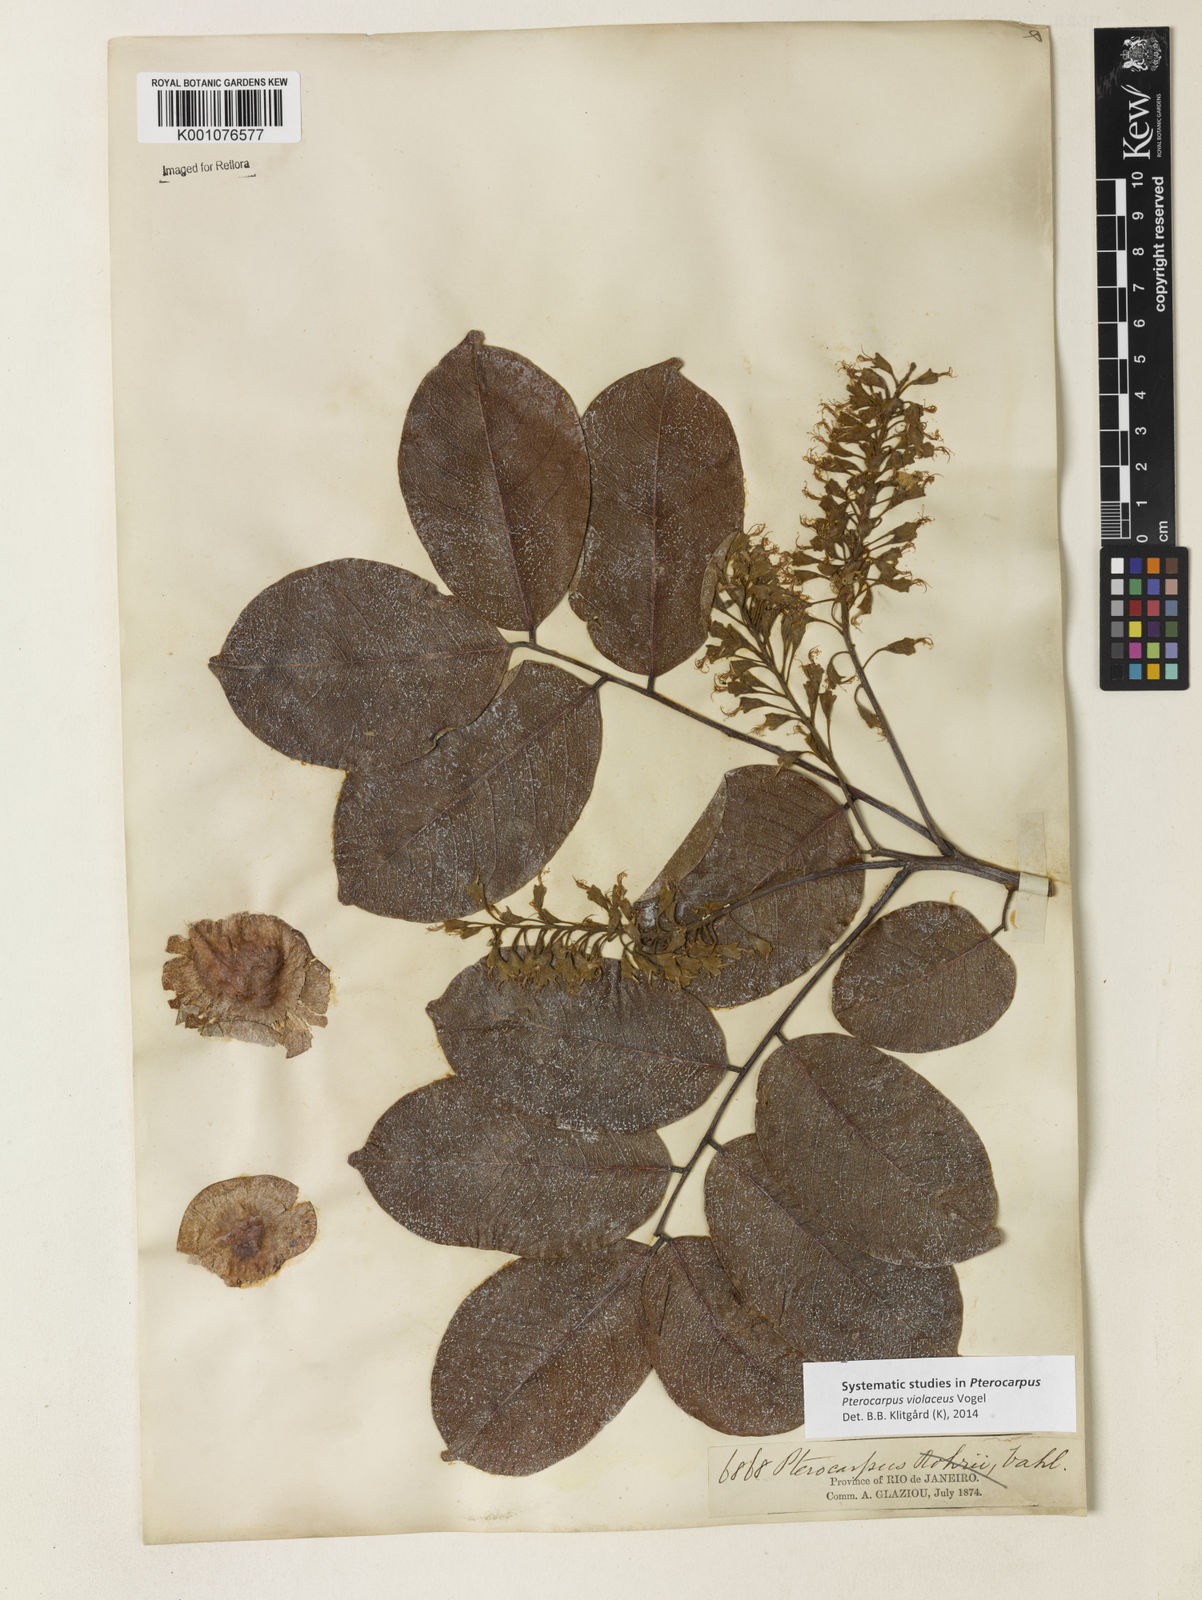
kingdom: Plantae
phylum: Tracheophyta
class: Magnoliopsida
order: Fabales
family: Fabaceae
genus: Pterocarpus
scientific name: Pterocarpus rohrii
